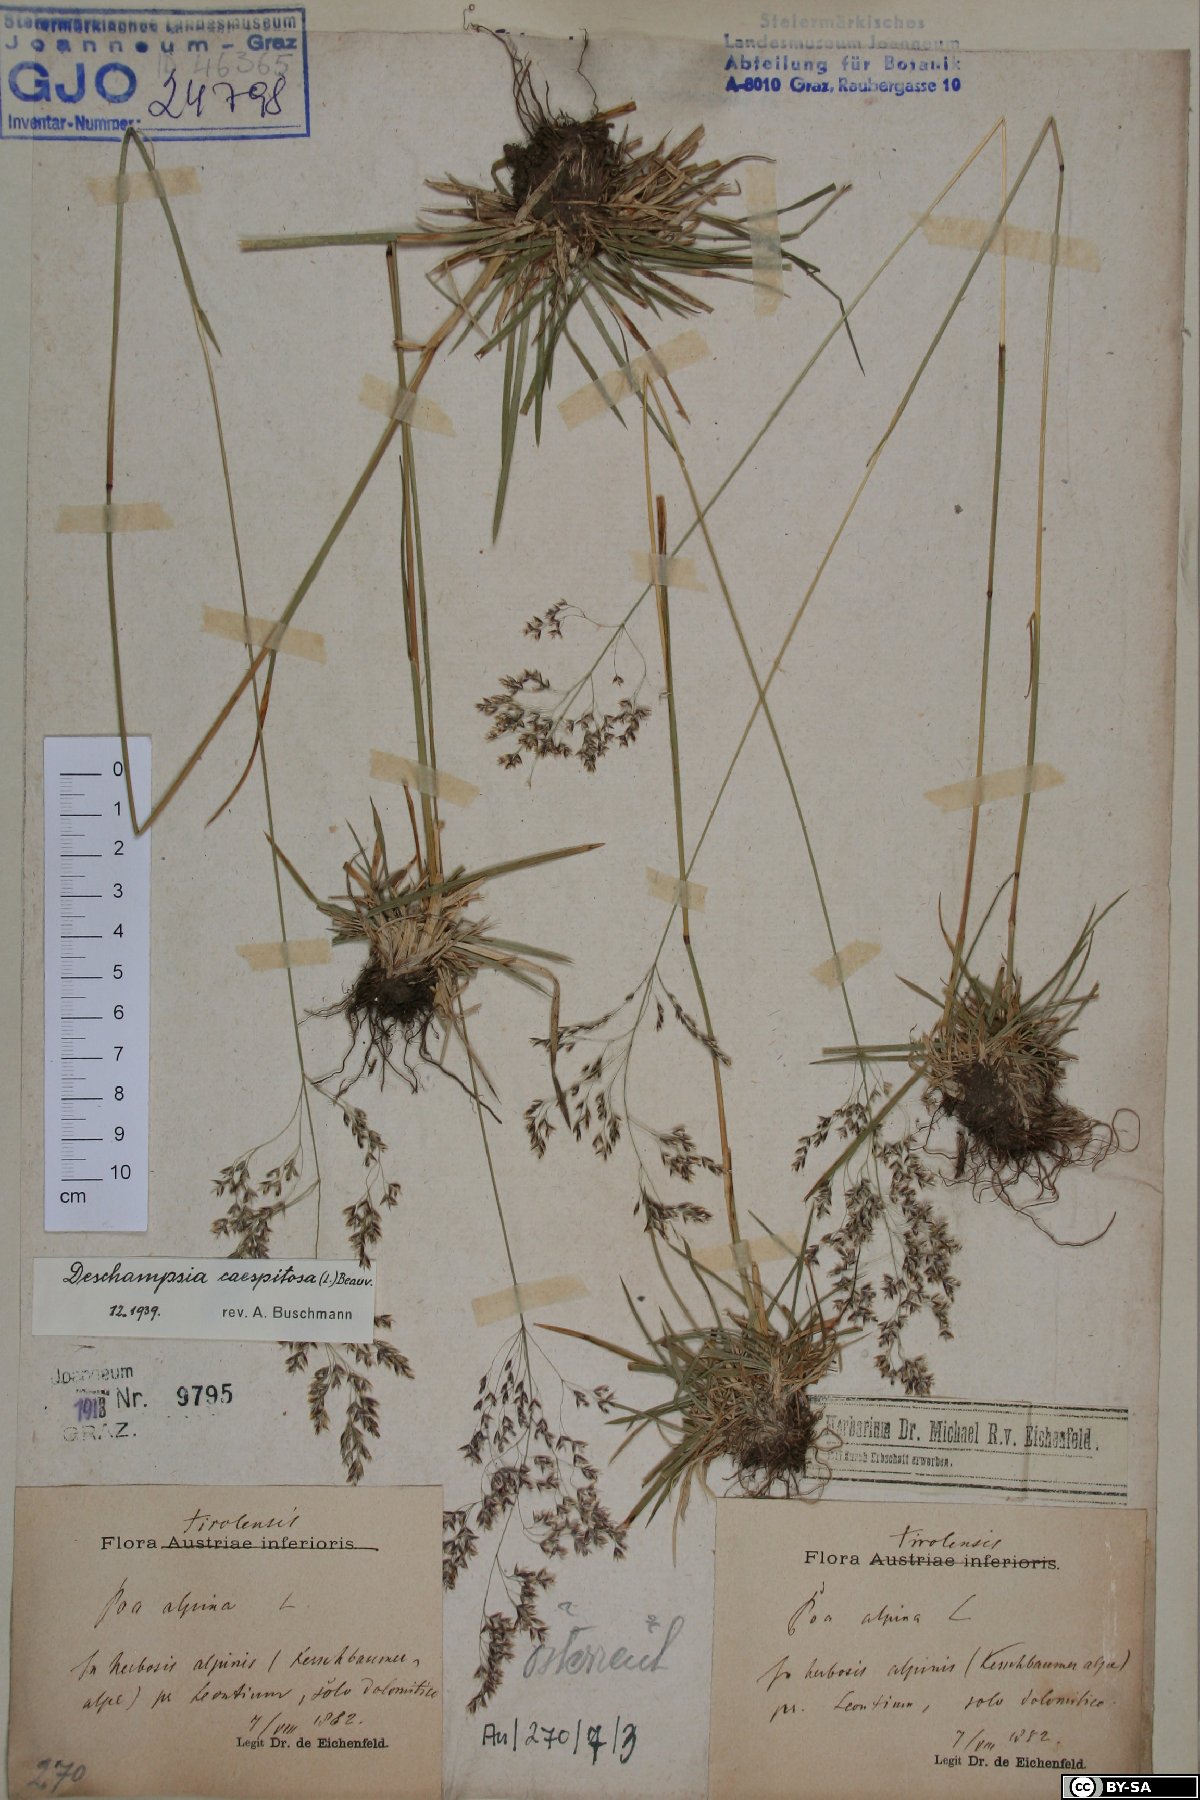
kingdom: Plantae
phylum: Tracheophyta
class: Liliopsida
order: Poales
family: Poaceae
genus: Deschampsia
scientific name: Deschampsia cespitosa
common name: Tufted hair-grass
